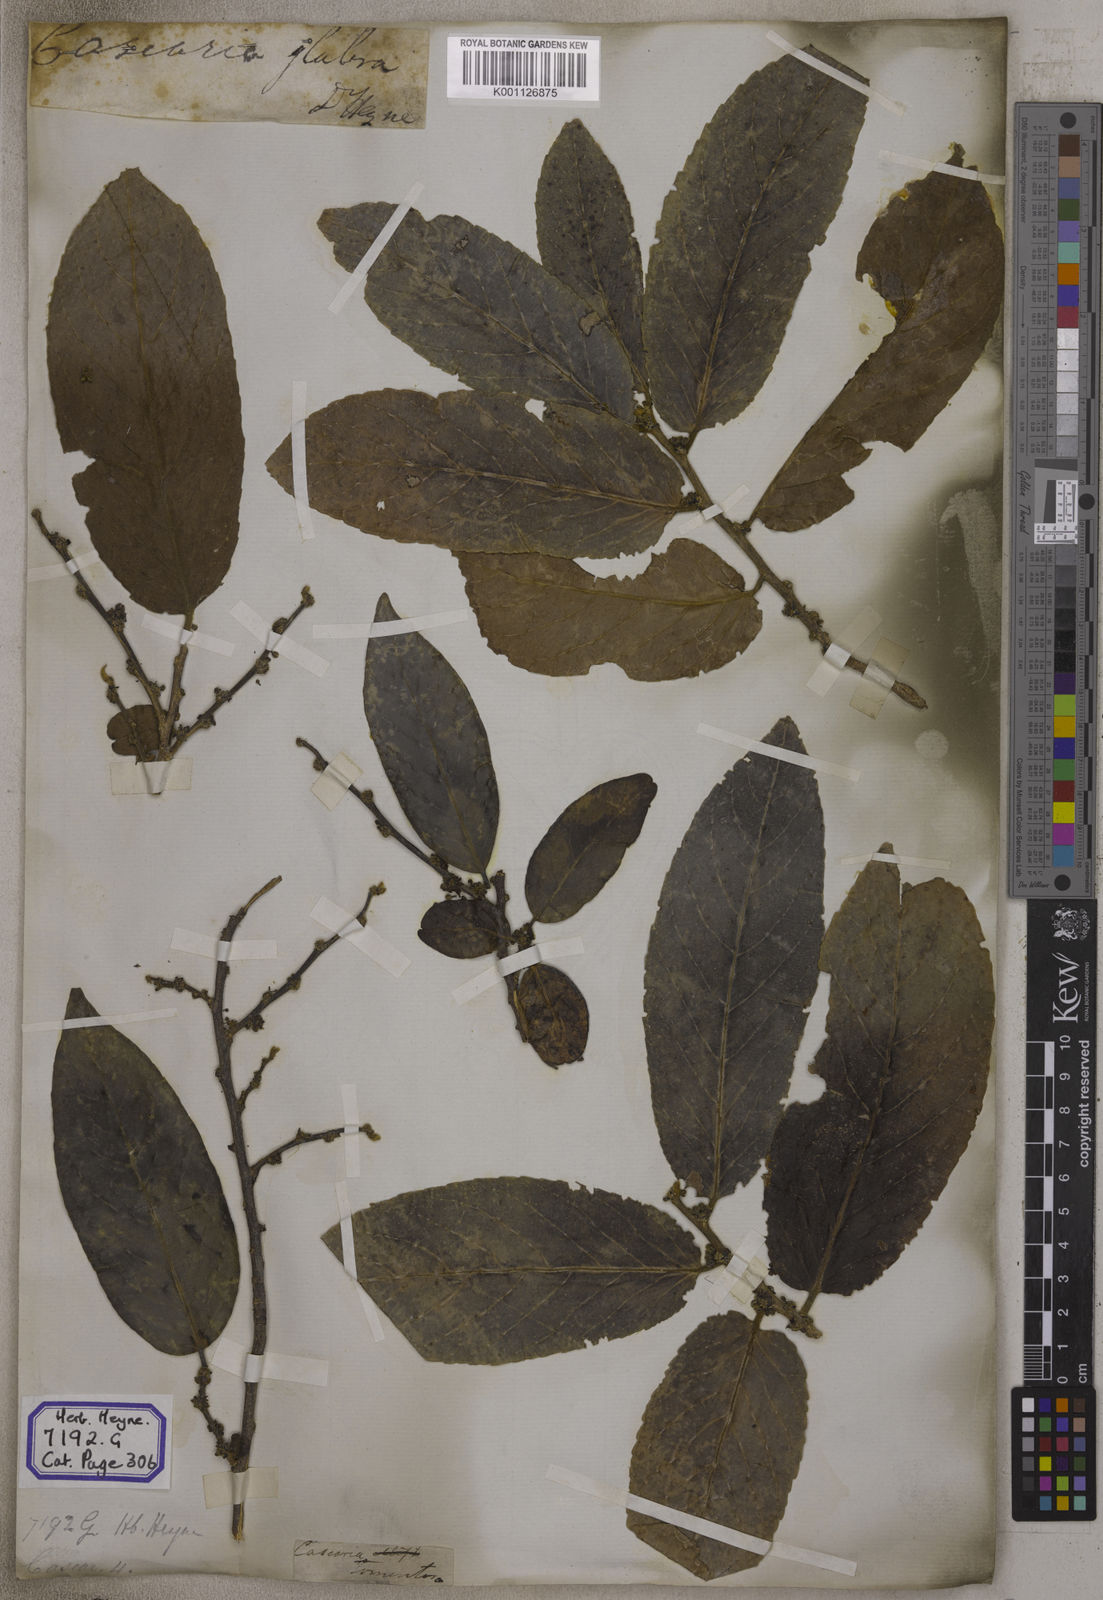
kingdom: Plantae
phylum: Tracheophyta
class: Magnoliopsida
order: Malpighiales
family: Salicaceae
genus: Casearia
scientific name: Casearia
